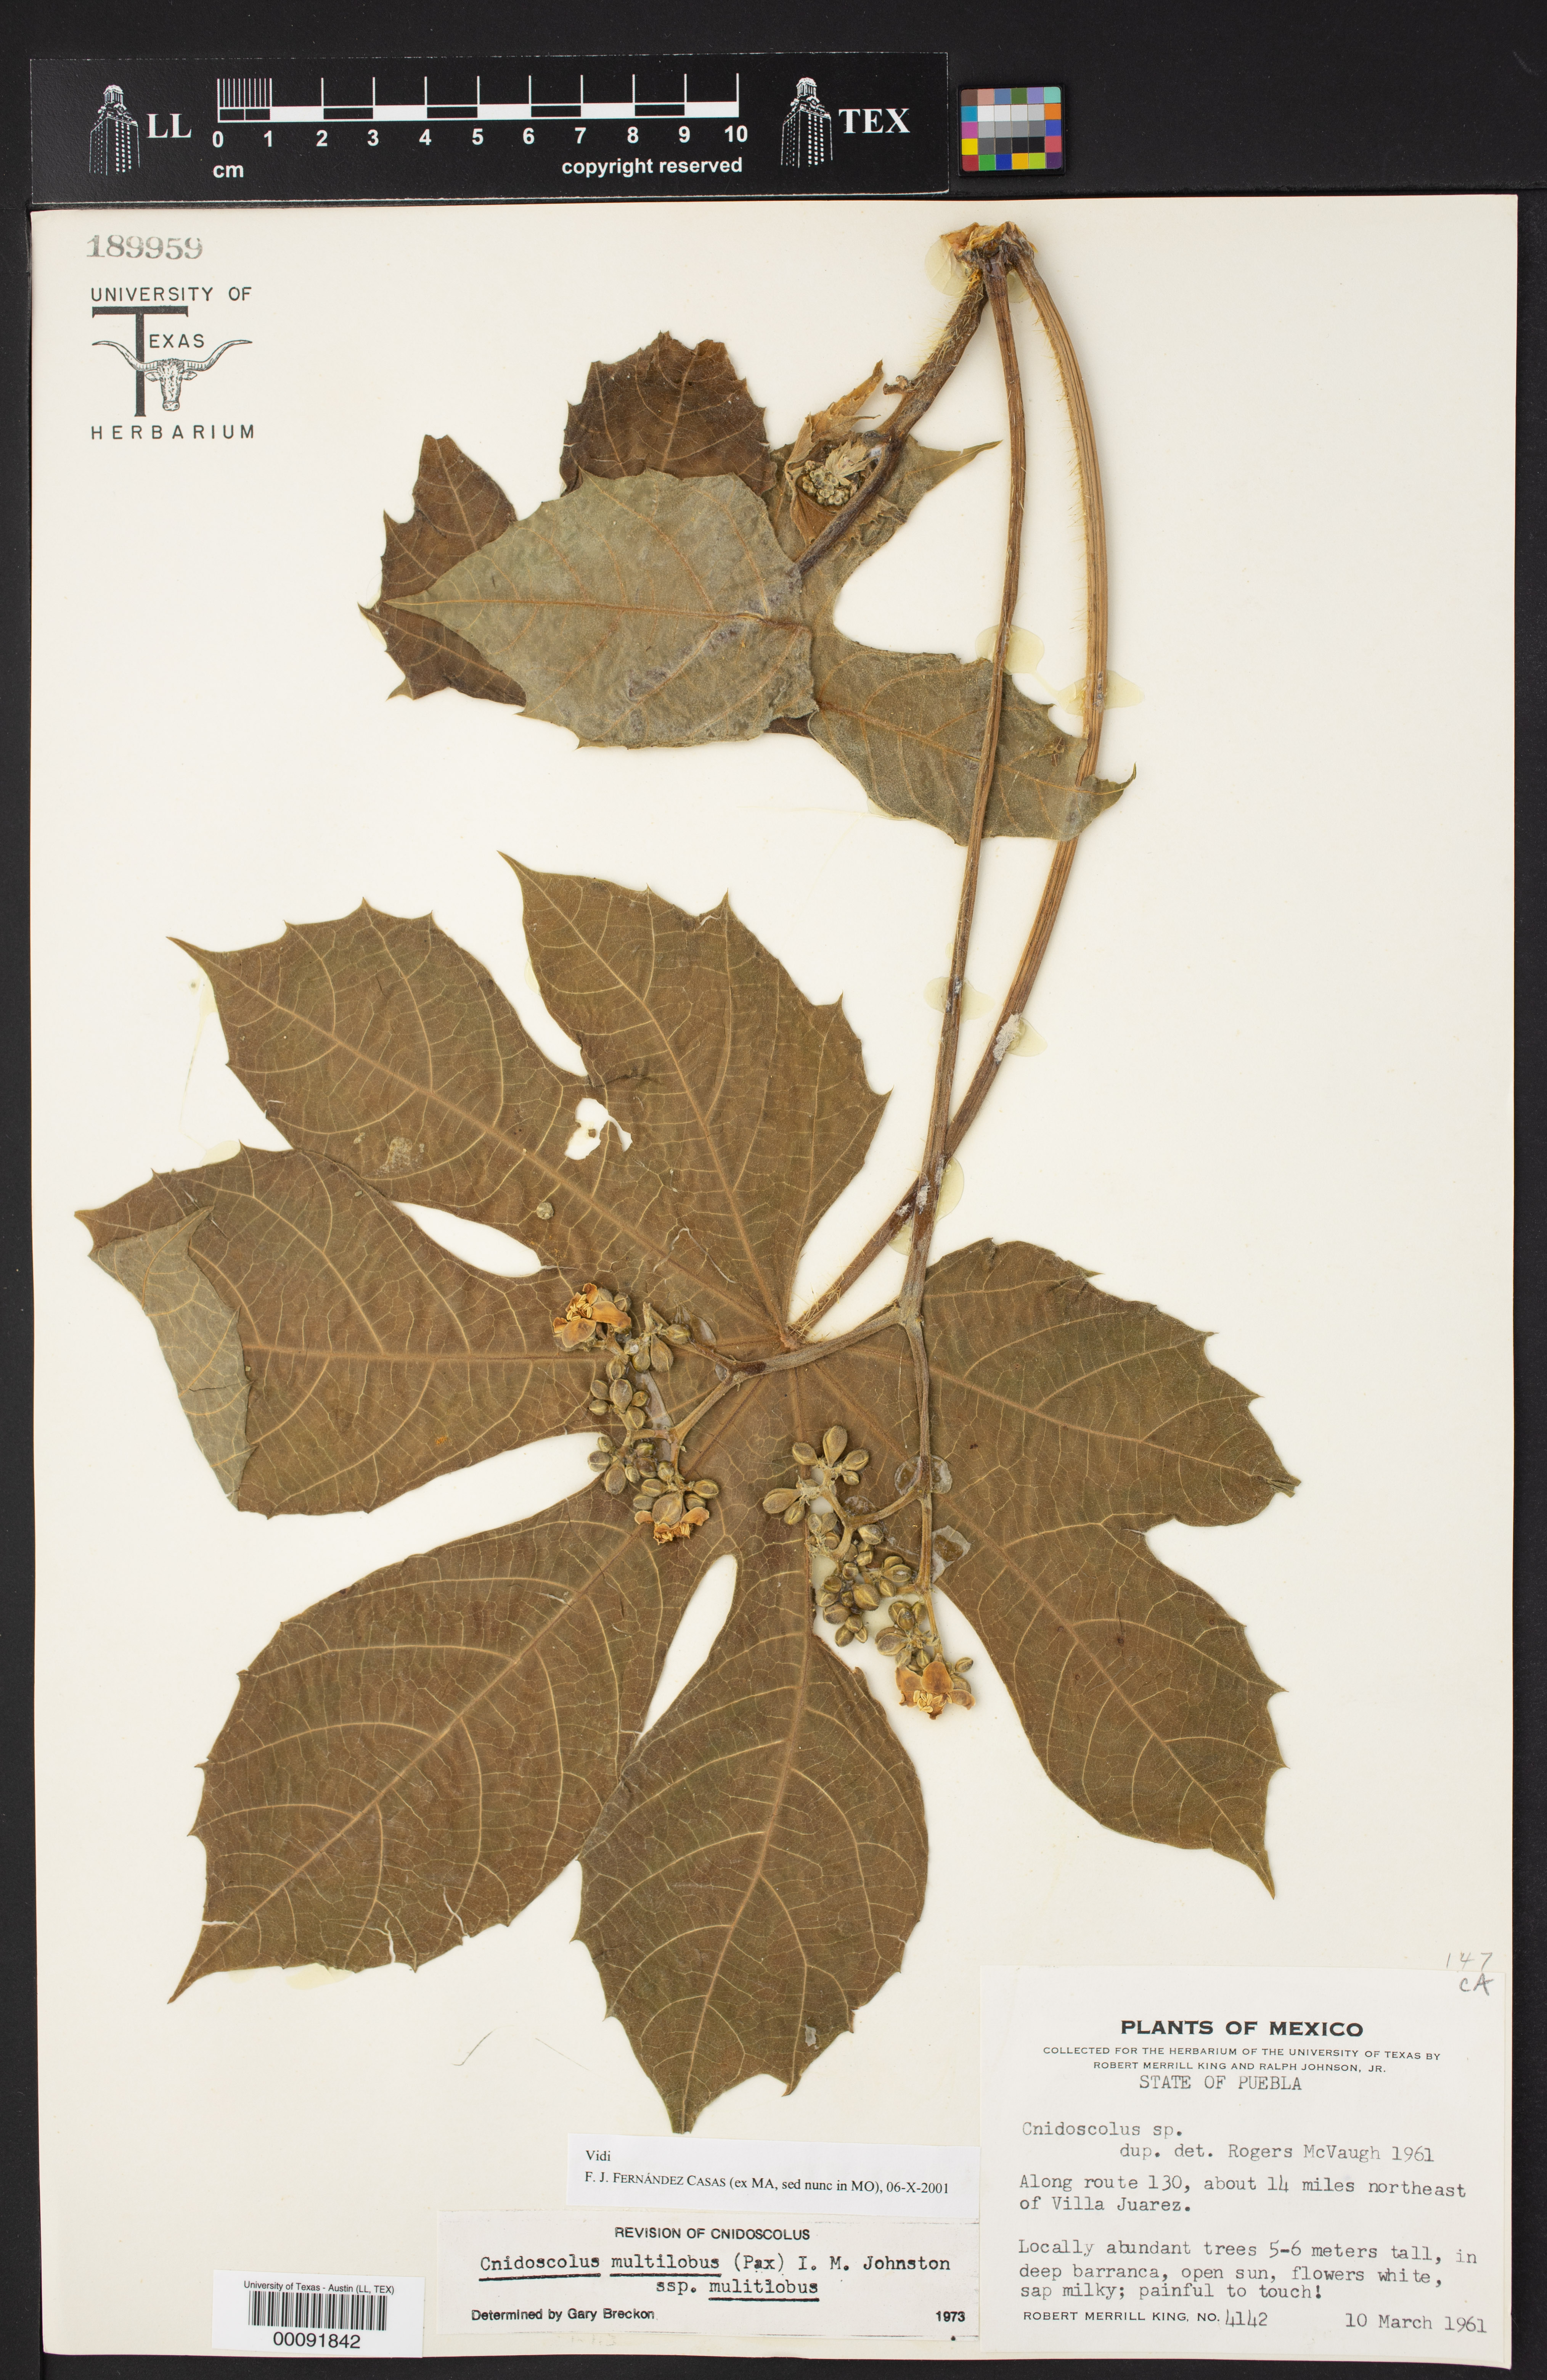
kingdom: Plantae
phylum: Tracheophyta
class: Magnoliopsida
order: Malpighiales
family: Euphorbiaceae
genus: Cnidoscolus
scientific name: Cnidoscolus multilobus
